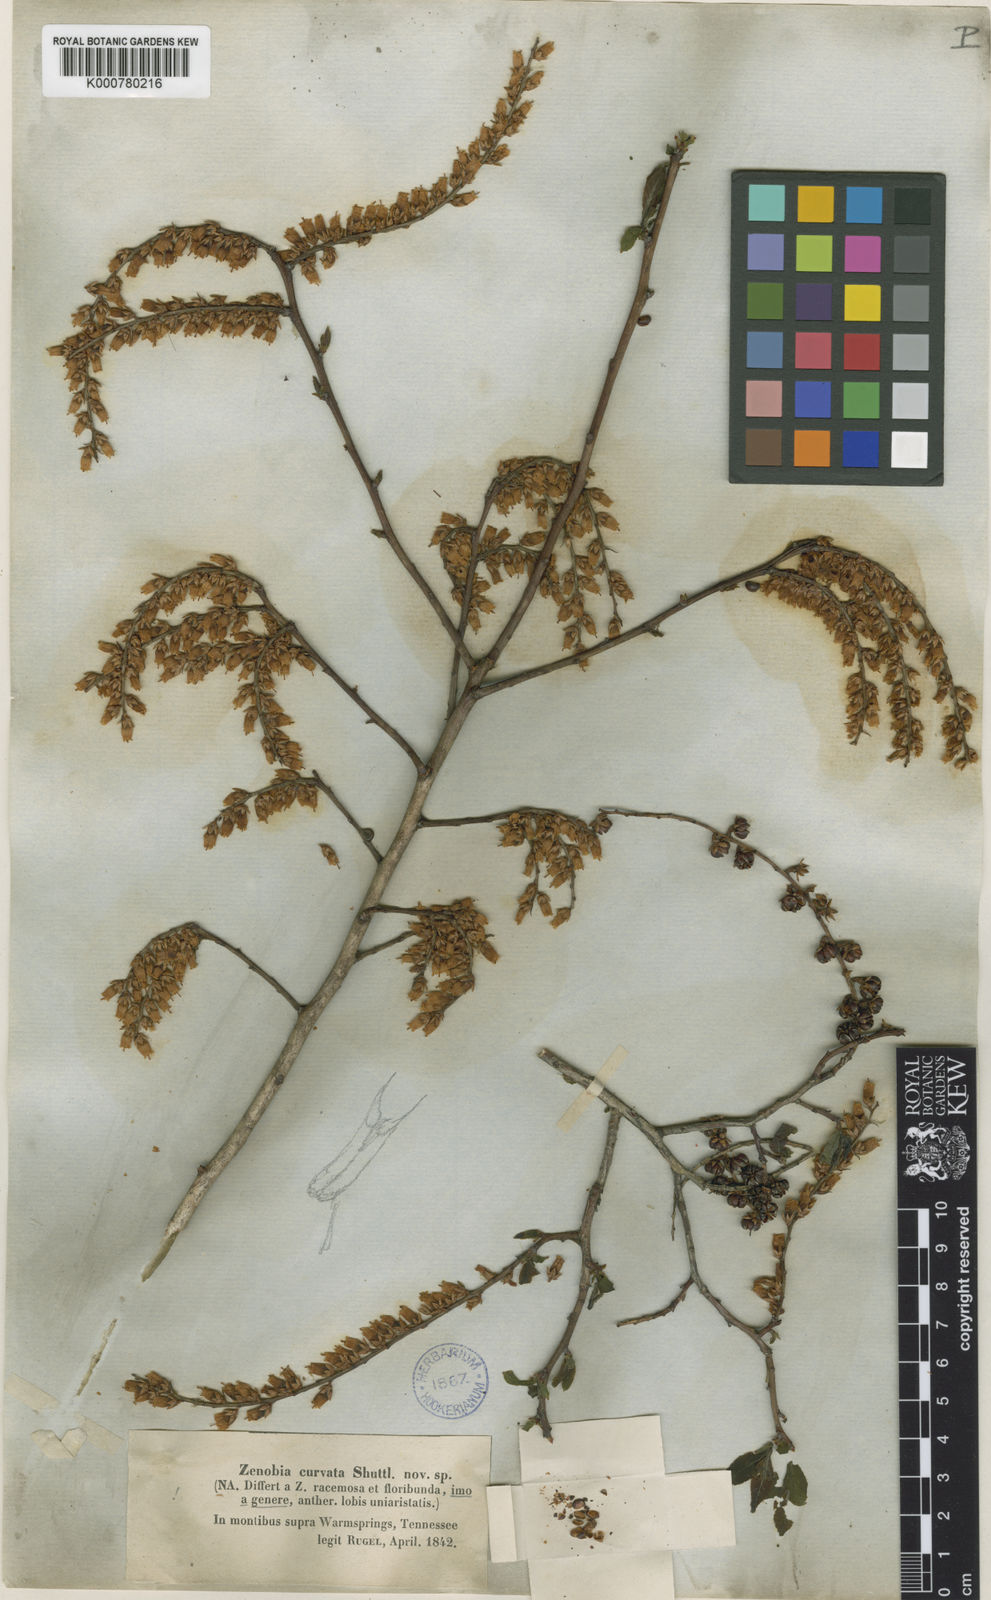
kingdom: Plantae
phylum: Tracheophyta
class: Magnoliopsida
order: Ericales
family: Ericaceae
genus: Eubotrys
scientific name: Eubotrys recurva
